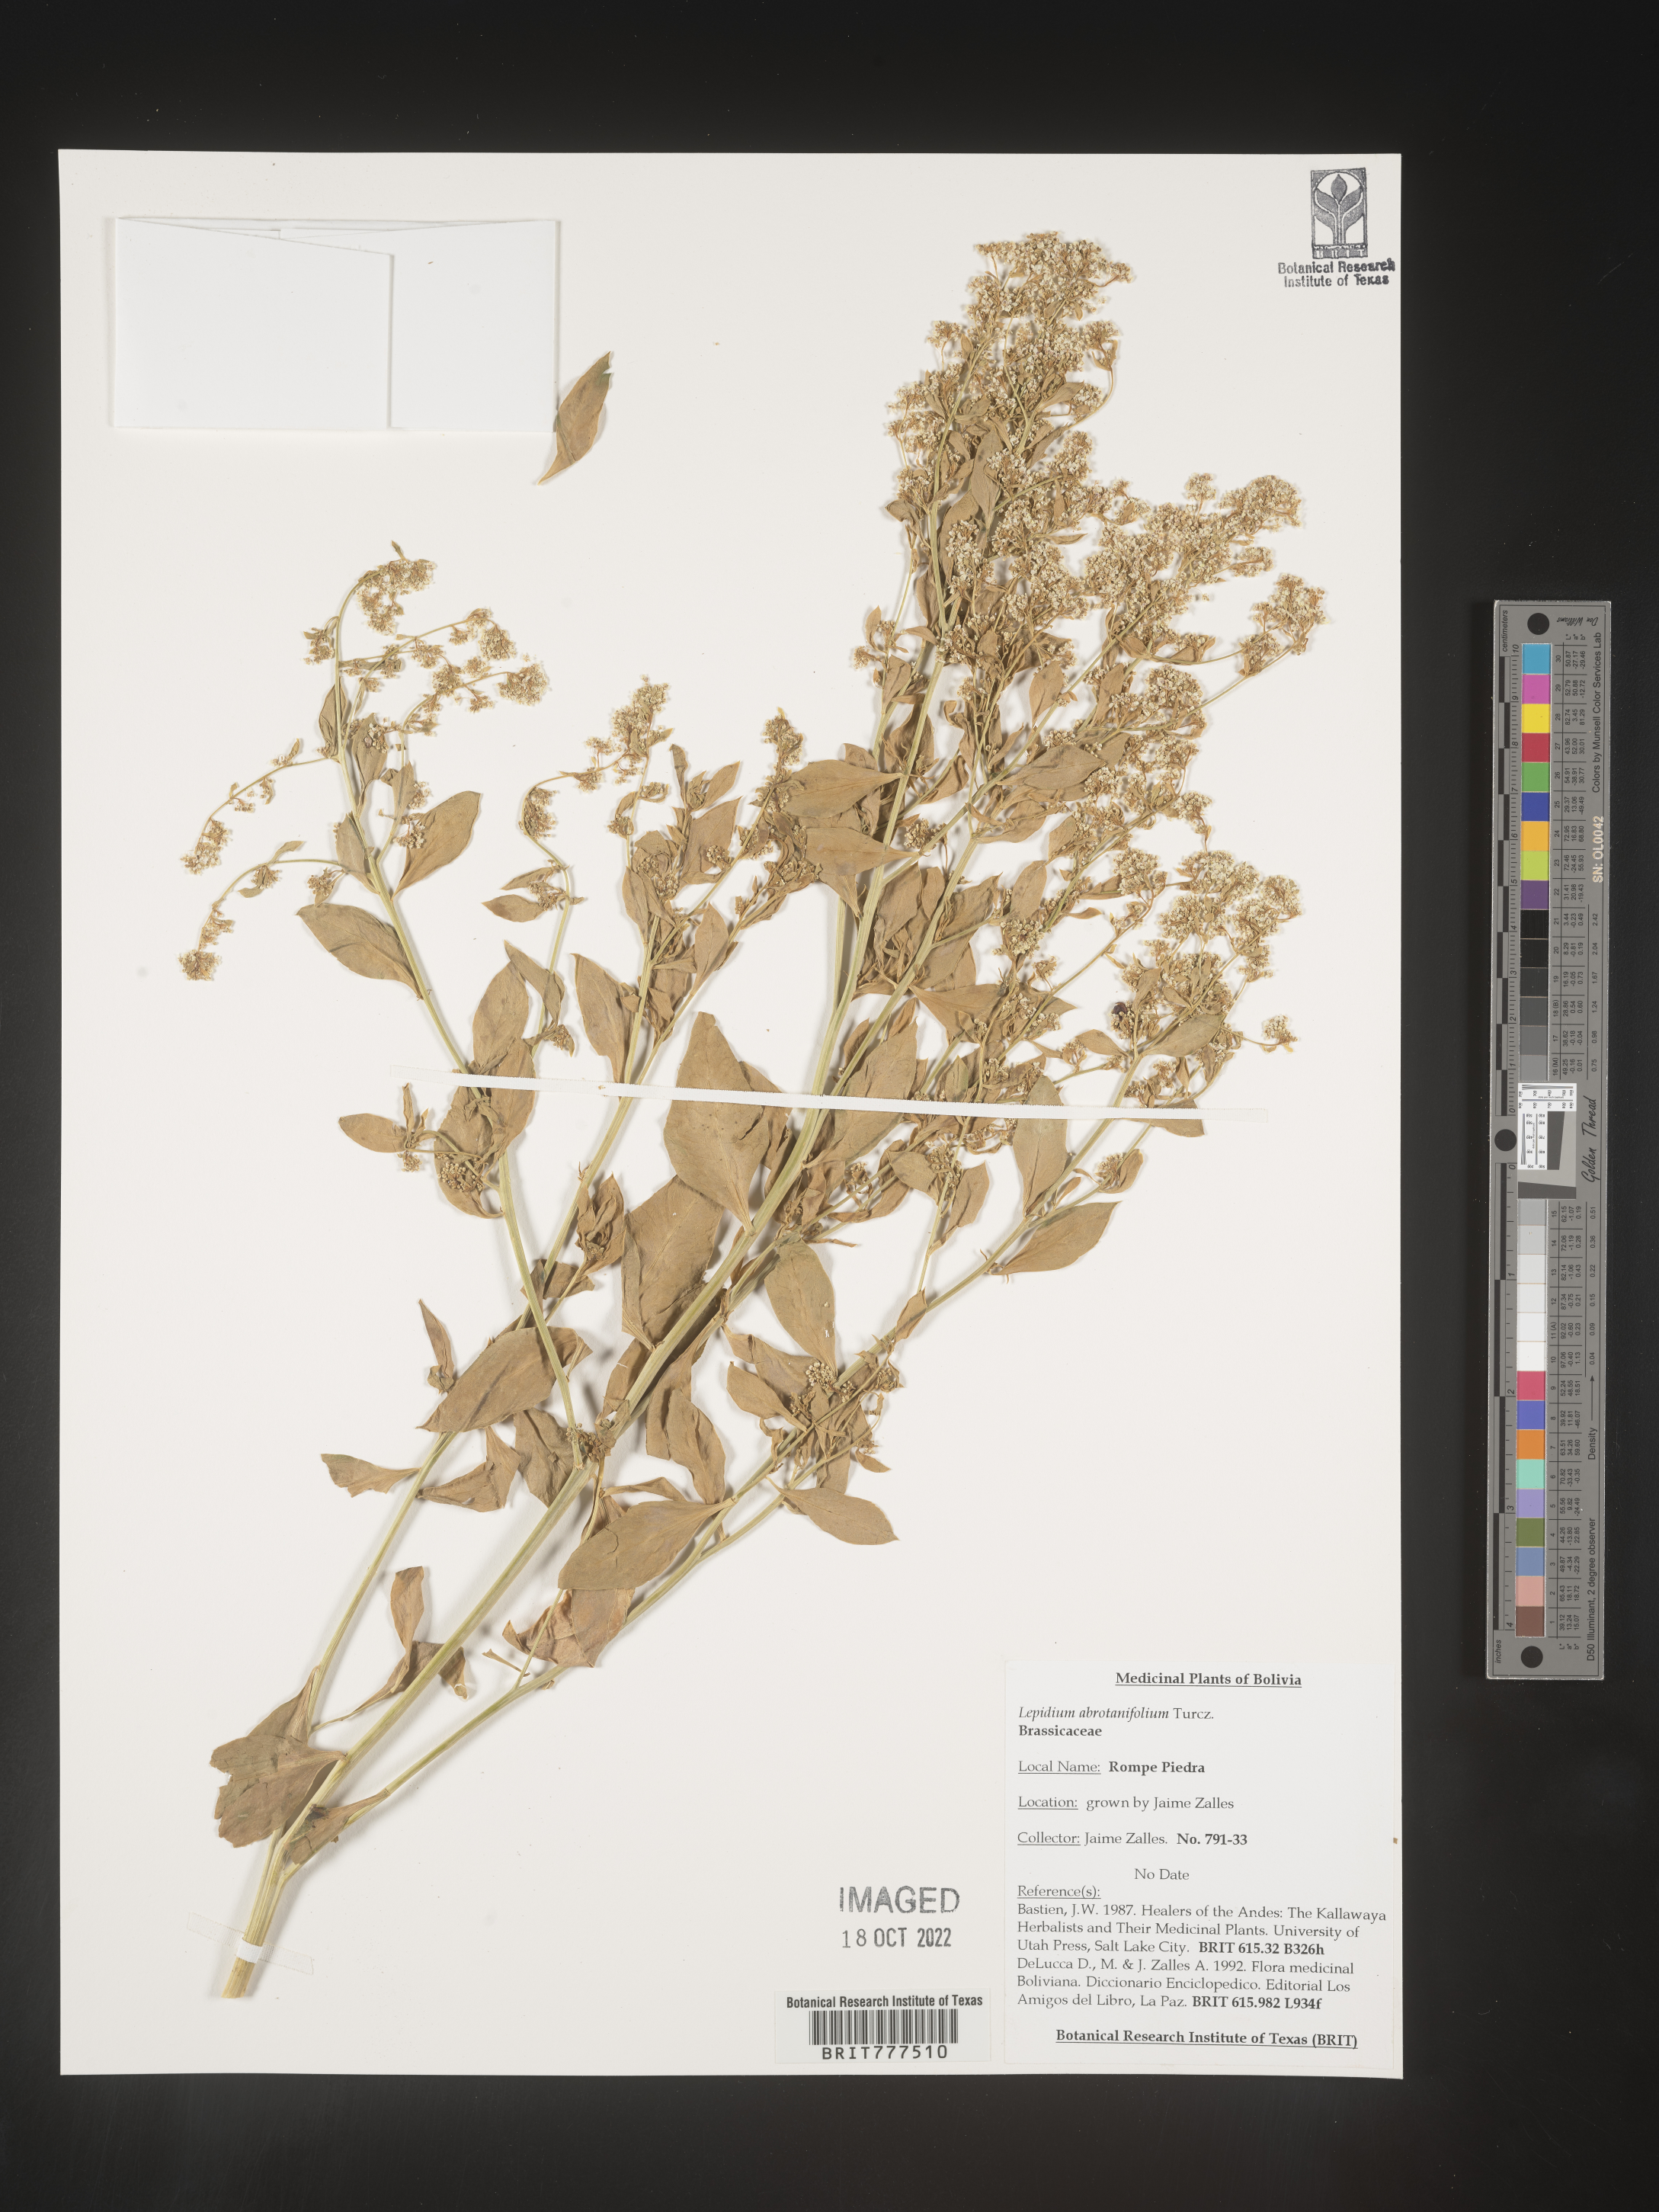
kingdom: Plantae
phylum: Tracheophyta
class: Magnoliopsida
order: Brassicales
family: Brassicaceae
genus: Lepidium
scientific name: Lepidium
